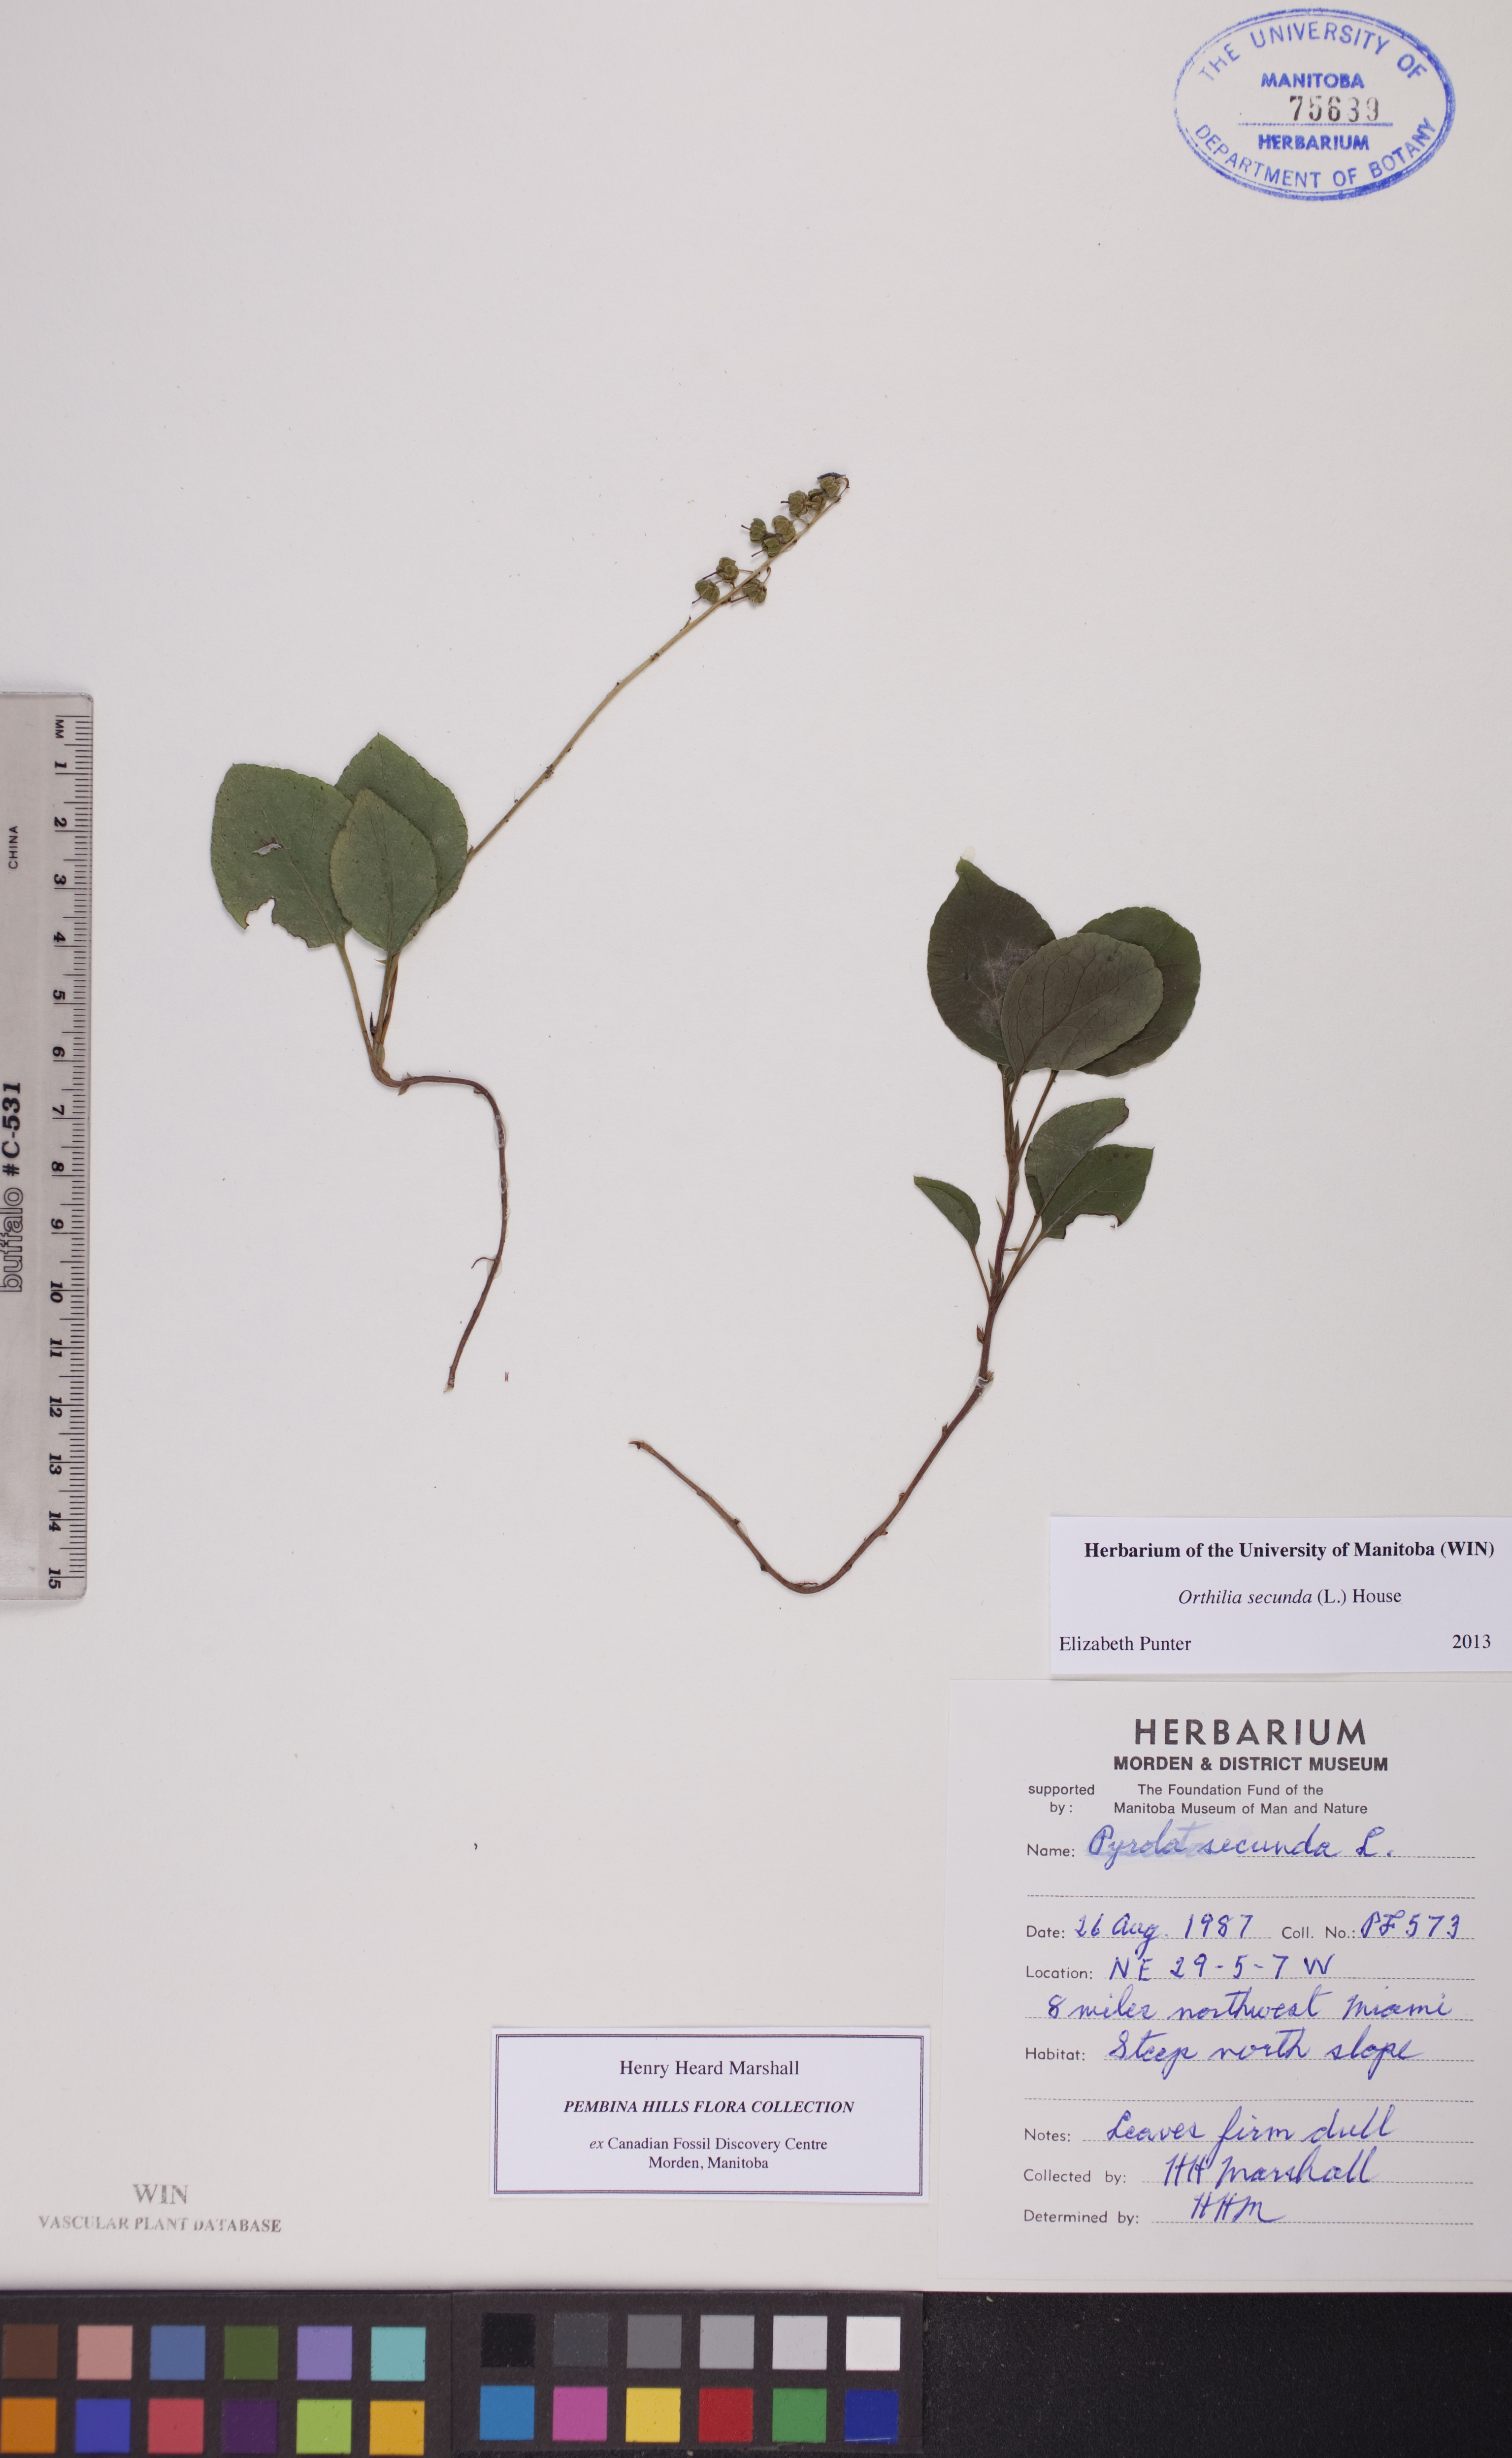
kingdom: Plantae
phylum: Tracheophyta
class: Magnoliopsida
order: Ericales
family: Ericaceae
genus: Orthilia
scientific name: Orthilia secunda
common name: One-sided orthilia
